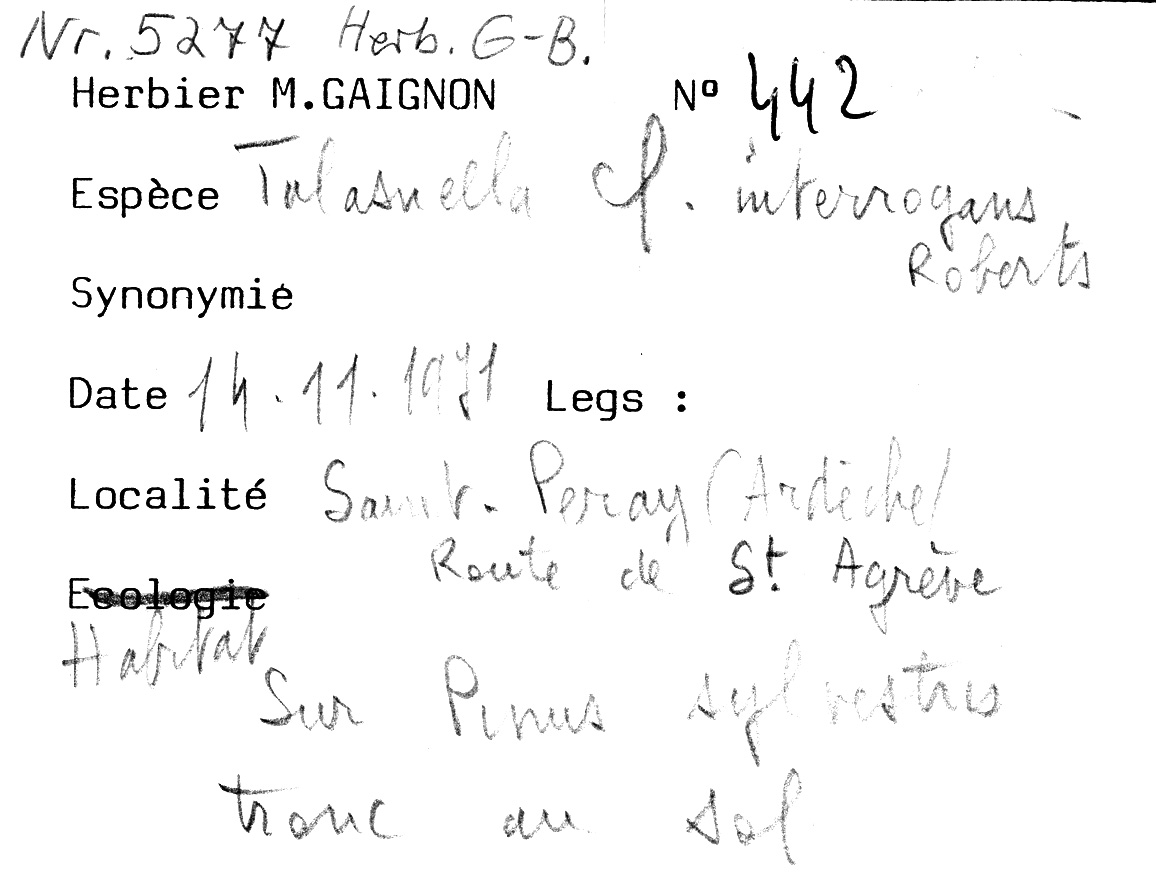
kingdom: Plantae
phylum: Tracheophyta
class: Pinopsida
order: Pinales
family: Pinaceae
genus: Pinus
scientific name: Pinus sylvestris
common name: Scots pine
